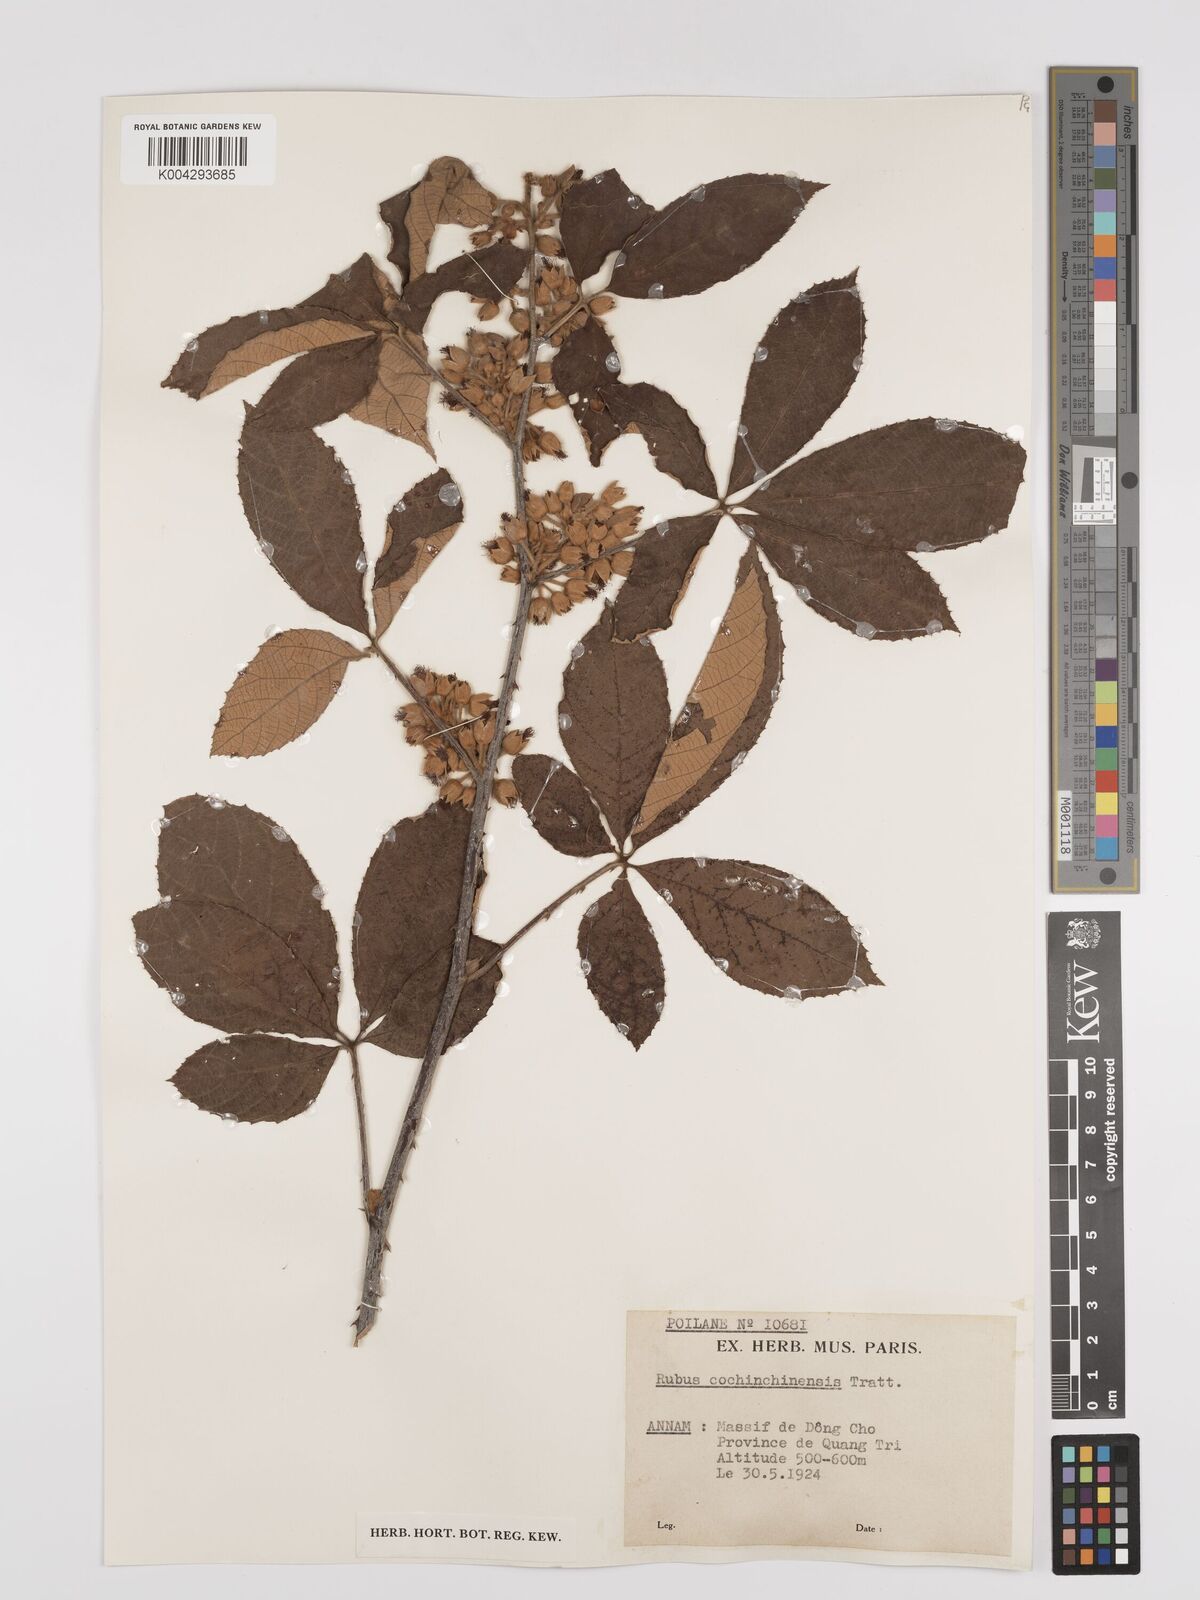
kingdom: Plantae
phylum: Tracheophyta
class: Magnoliopsida
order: Rosales
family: Rosaceae
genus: Rubus
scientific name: Rubus cochinchinensis
